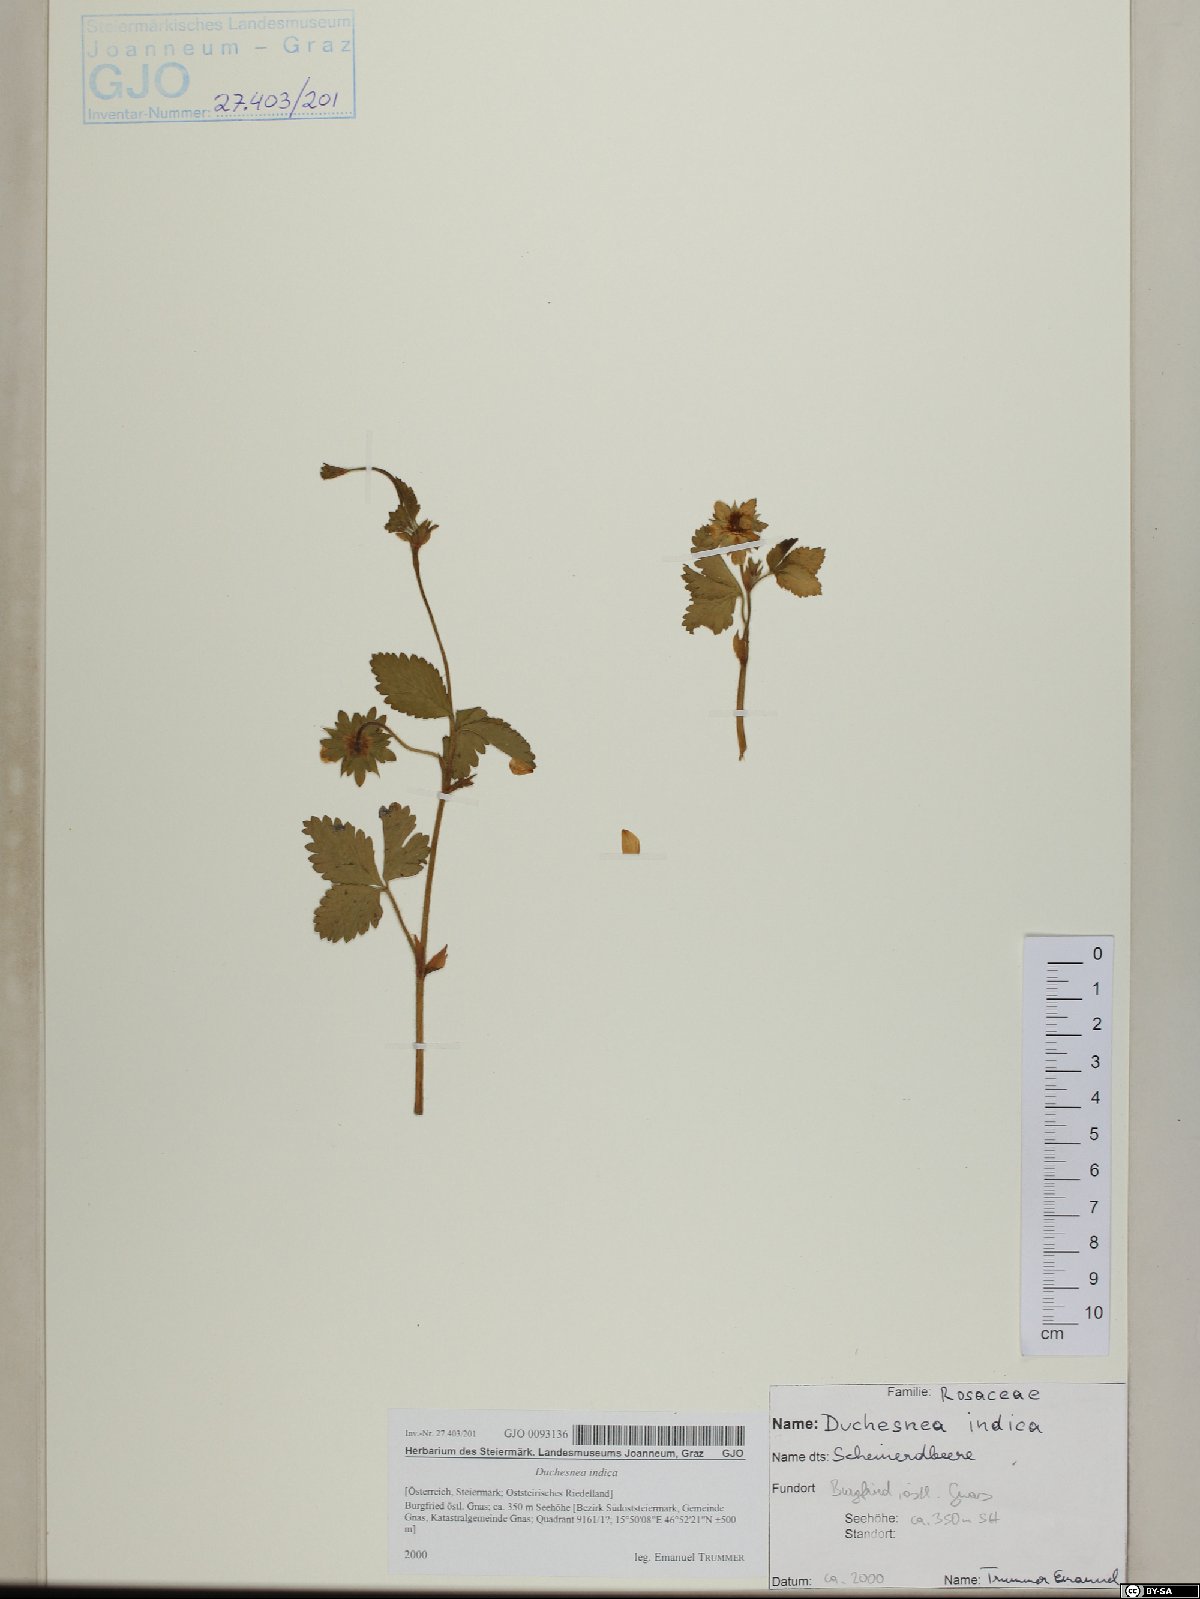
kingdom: Plantae
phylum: Tracheophyta
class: Magnoliopsida
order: Rosales
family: Rosaceae
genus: Potentilla
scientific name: Potentilla indica
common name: Yellow-flowered strawberry
